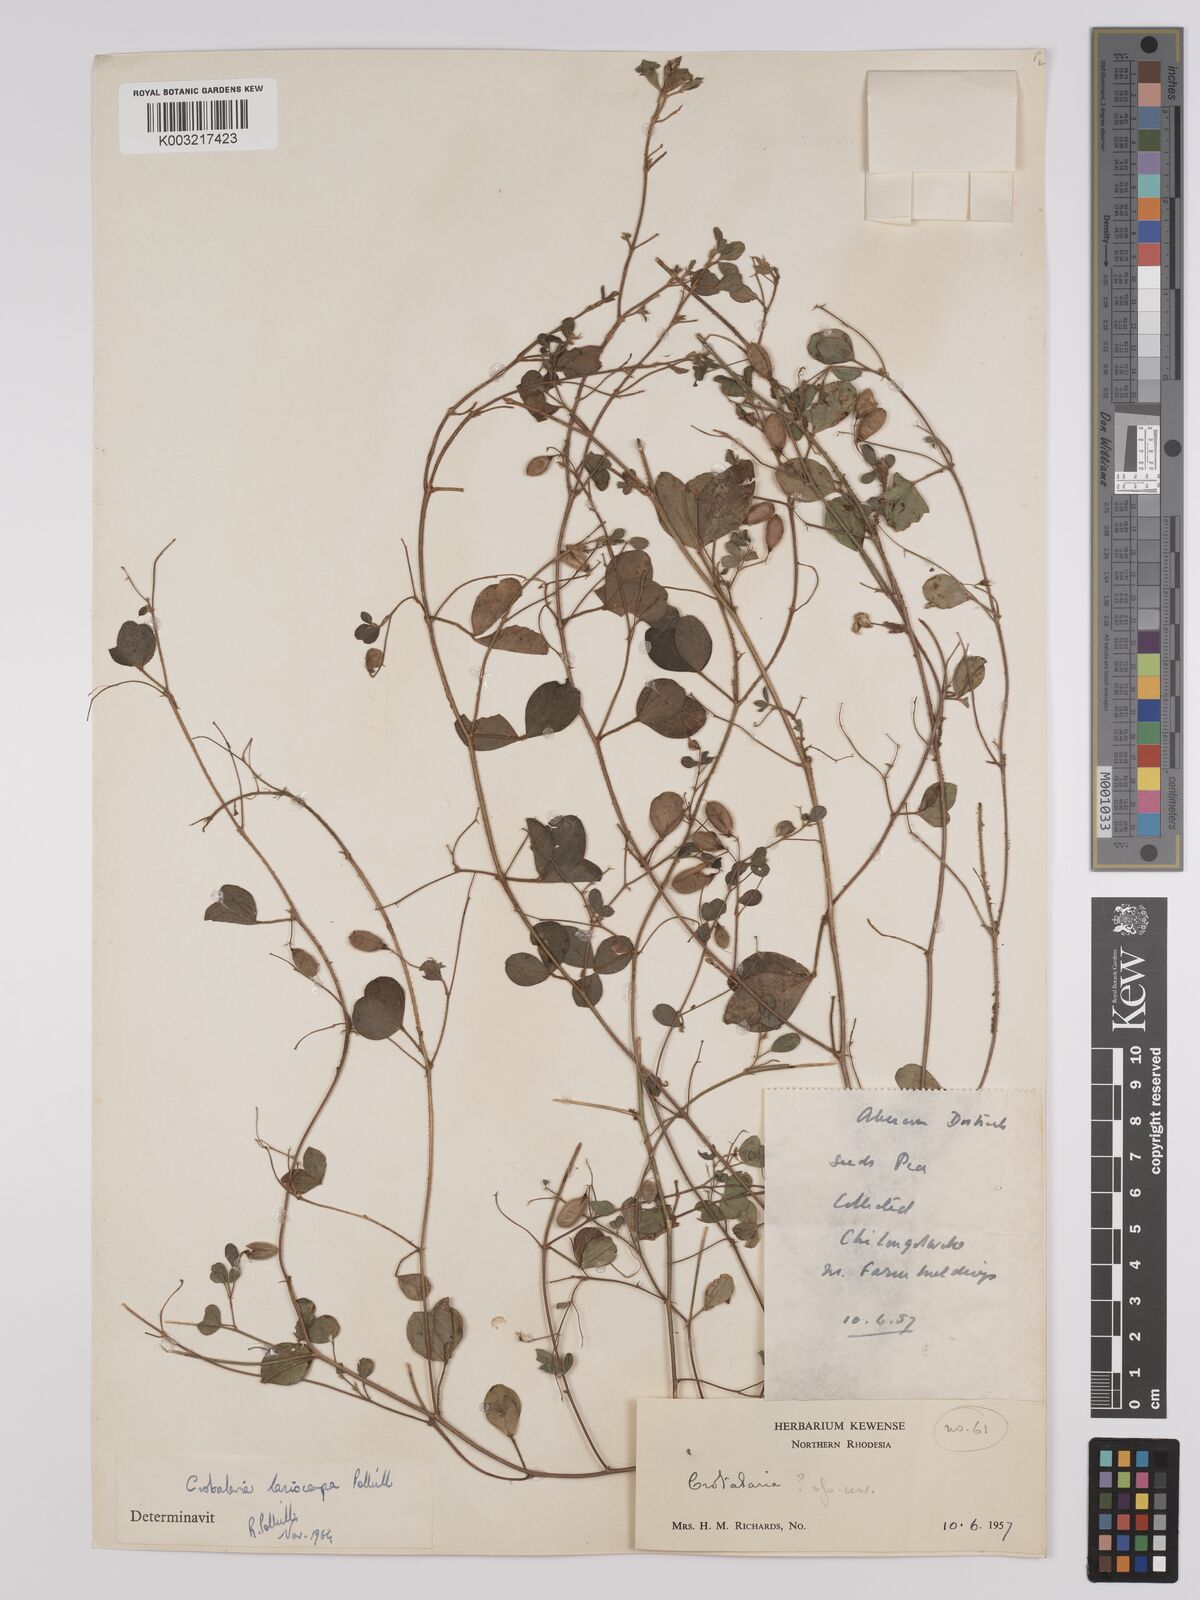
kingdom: Plantae
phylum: Tracheophyta
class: Magnoliopsida
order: Fabales
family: Fabaceae
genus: Crotalaria
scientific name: Crotalaria lasiocarpa
